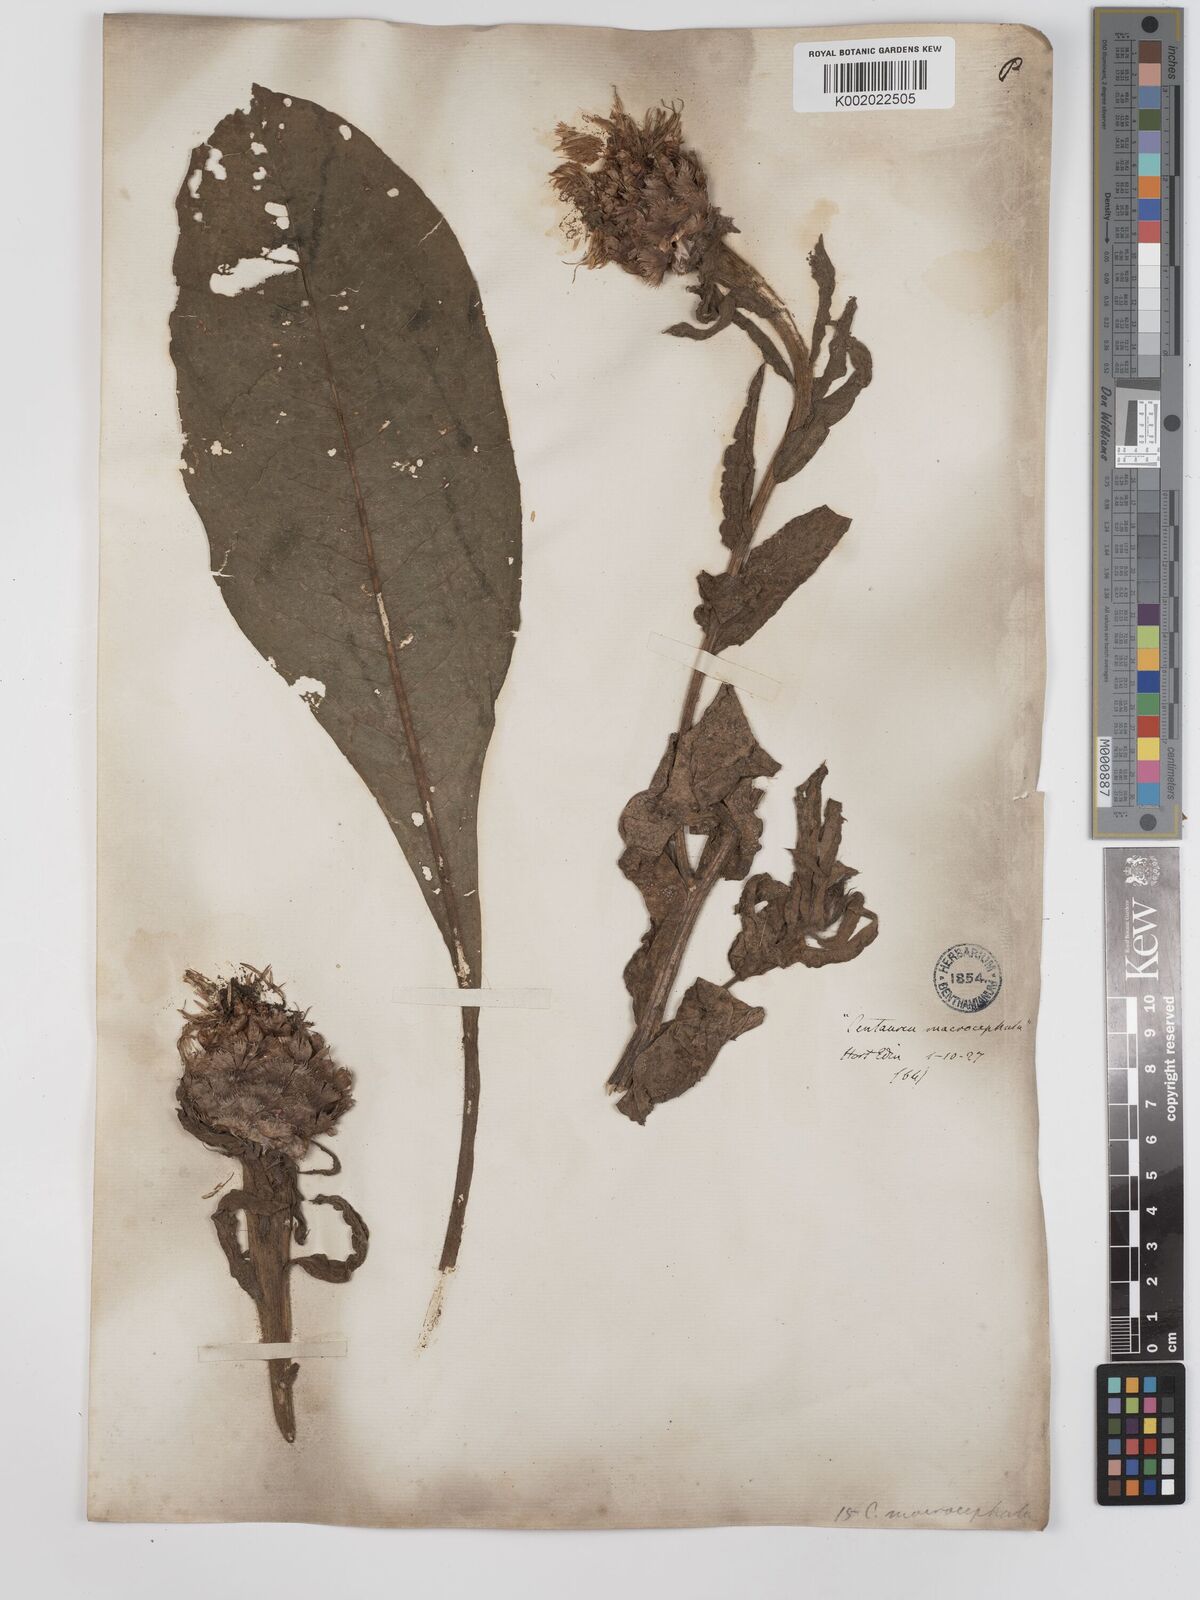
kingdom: Plantae
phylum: Tracheophyta
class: Magnoliopsida
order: Asterales
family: Asteraceae
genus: Centaurea
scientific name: Centaurea macrocephala
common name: Big-head knapweed
